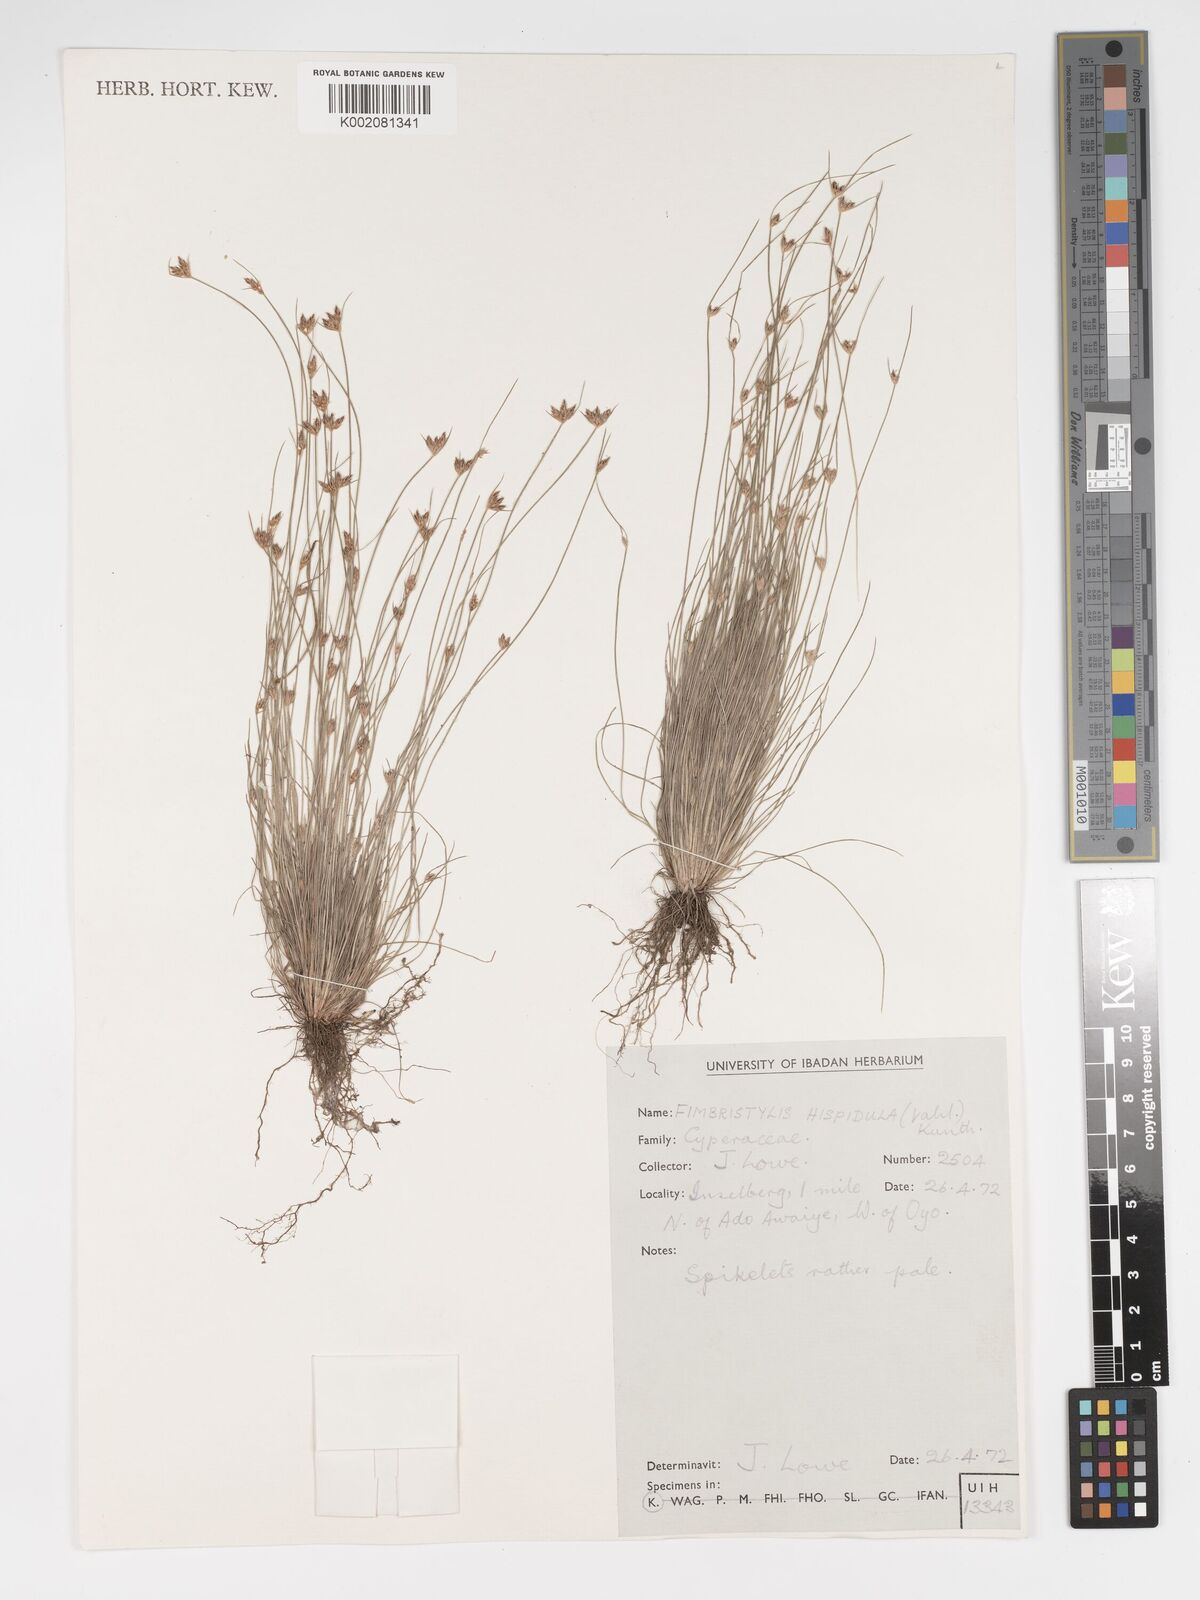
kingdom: Plantae
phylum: Tracheophyta
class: Liliopsida
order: Poales
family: Cyperaceae
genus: Bulbostylis
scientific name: Bulbostylis hispidula
